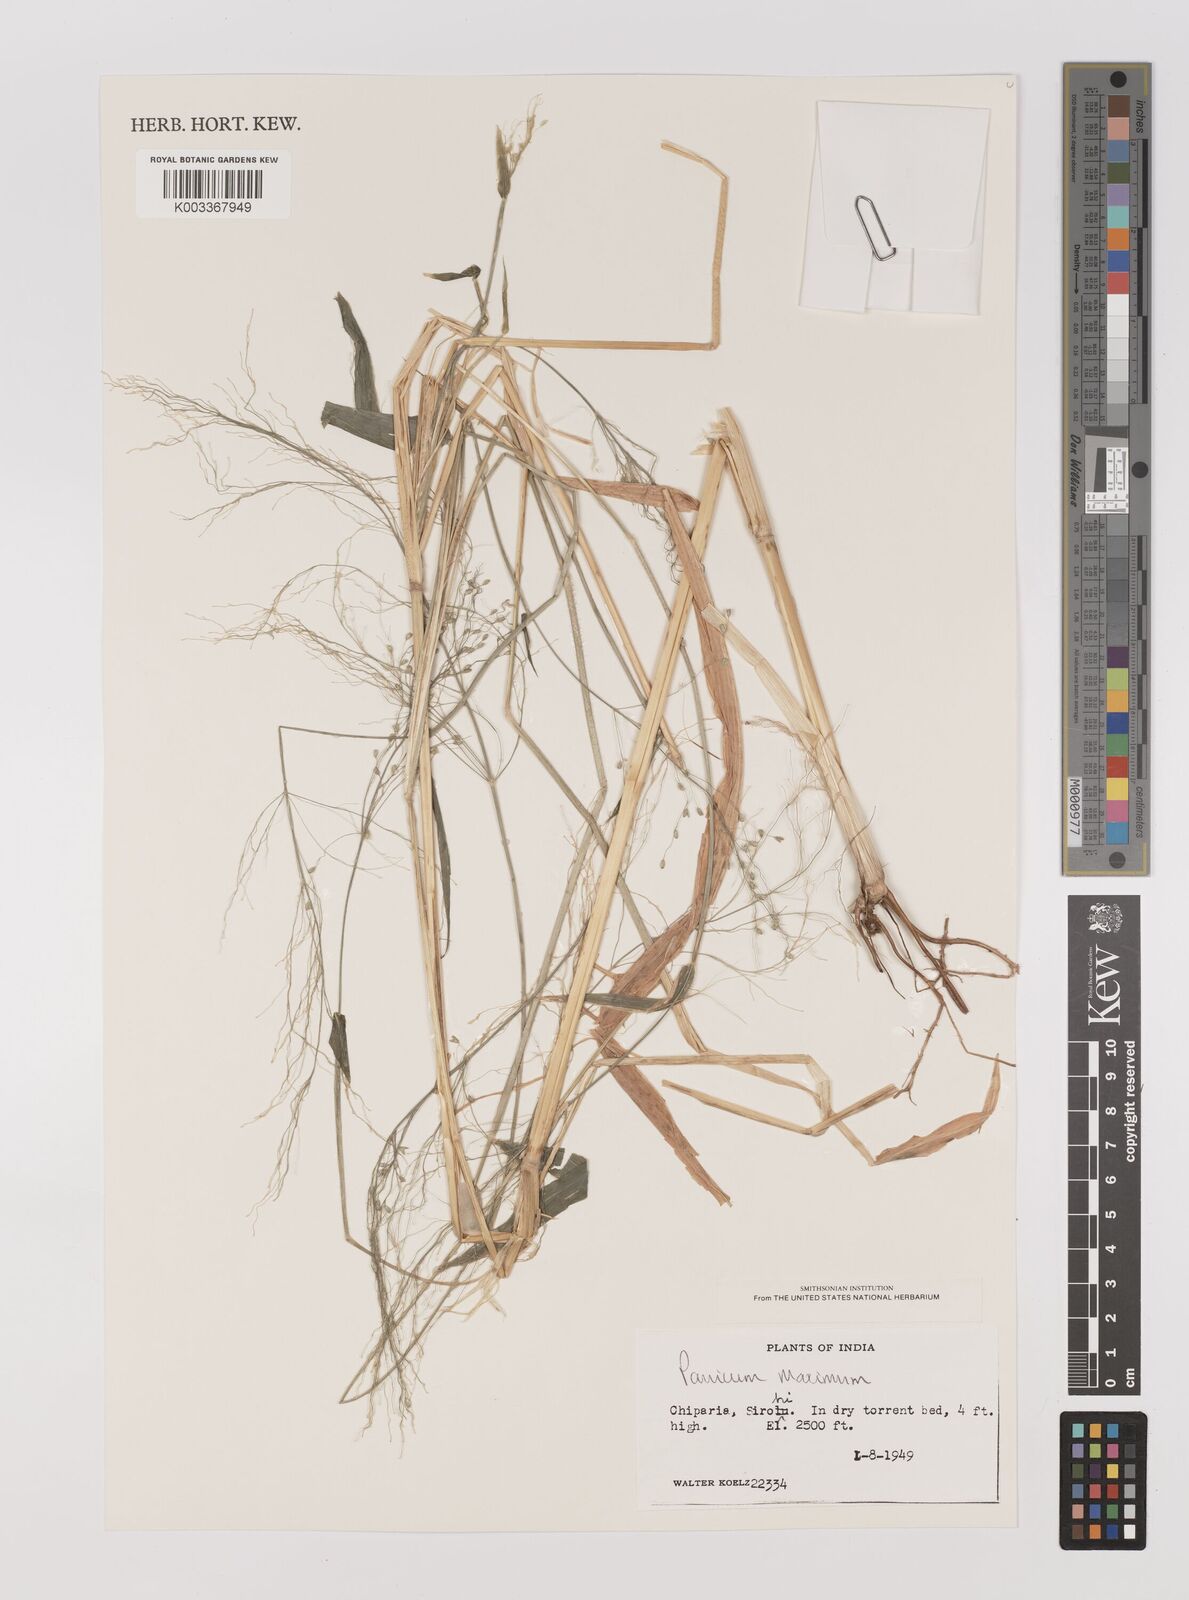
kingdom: Plantae
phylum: Tracheophyta
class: Liliopsida
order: Poales
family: Poaceae
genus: Megathyrsus
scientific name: Megathyrsus maximus
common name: Guineagrass
